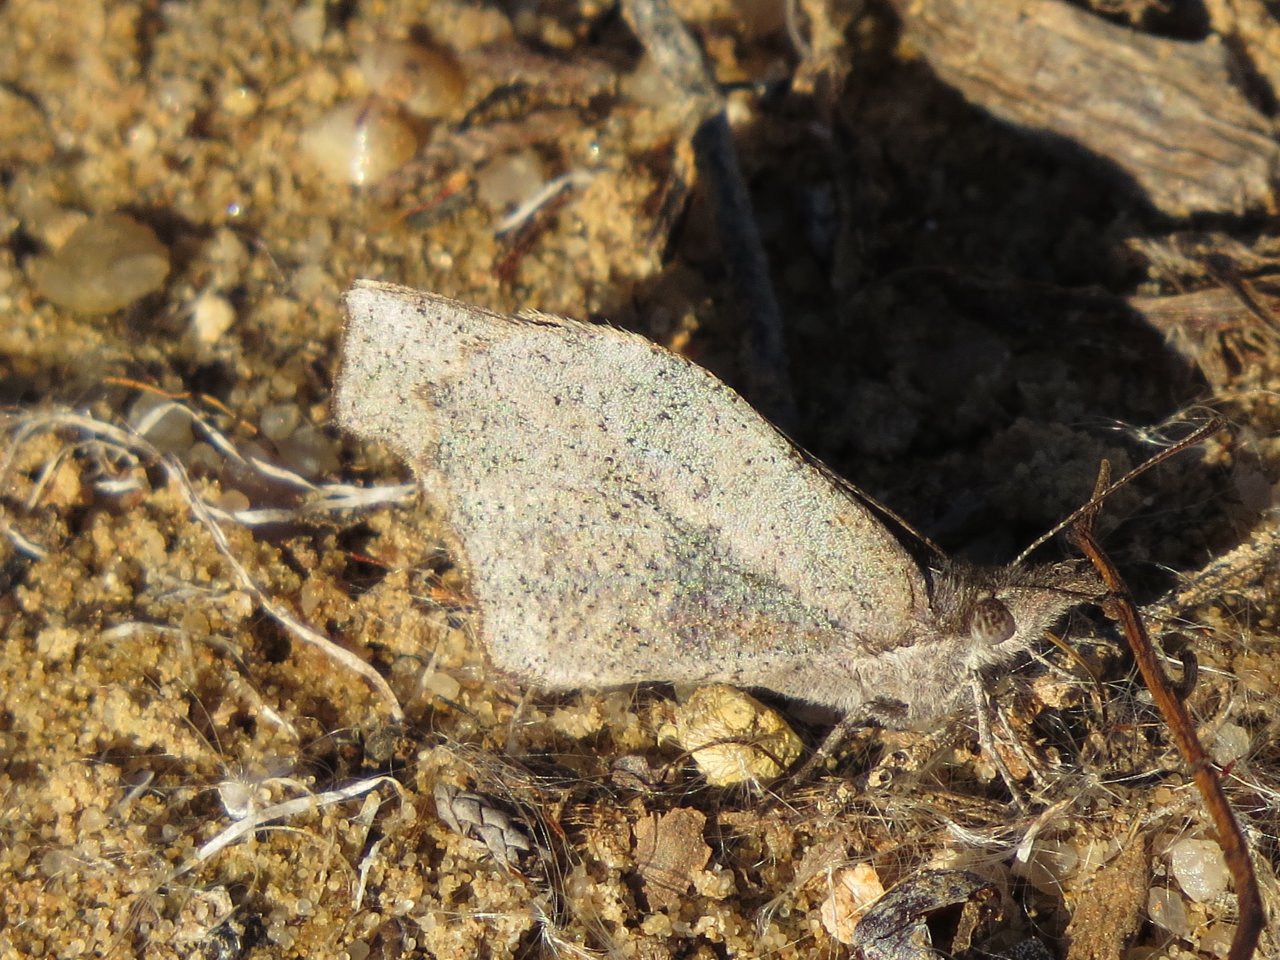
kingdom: Animalia
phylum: Arthropoda
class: Insecta
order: Lepidoptera
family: Nymphalidae
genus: Libytheana
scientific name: Libytheana carinenta
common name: American Snout
